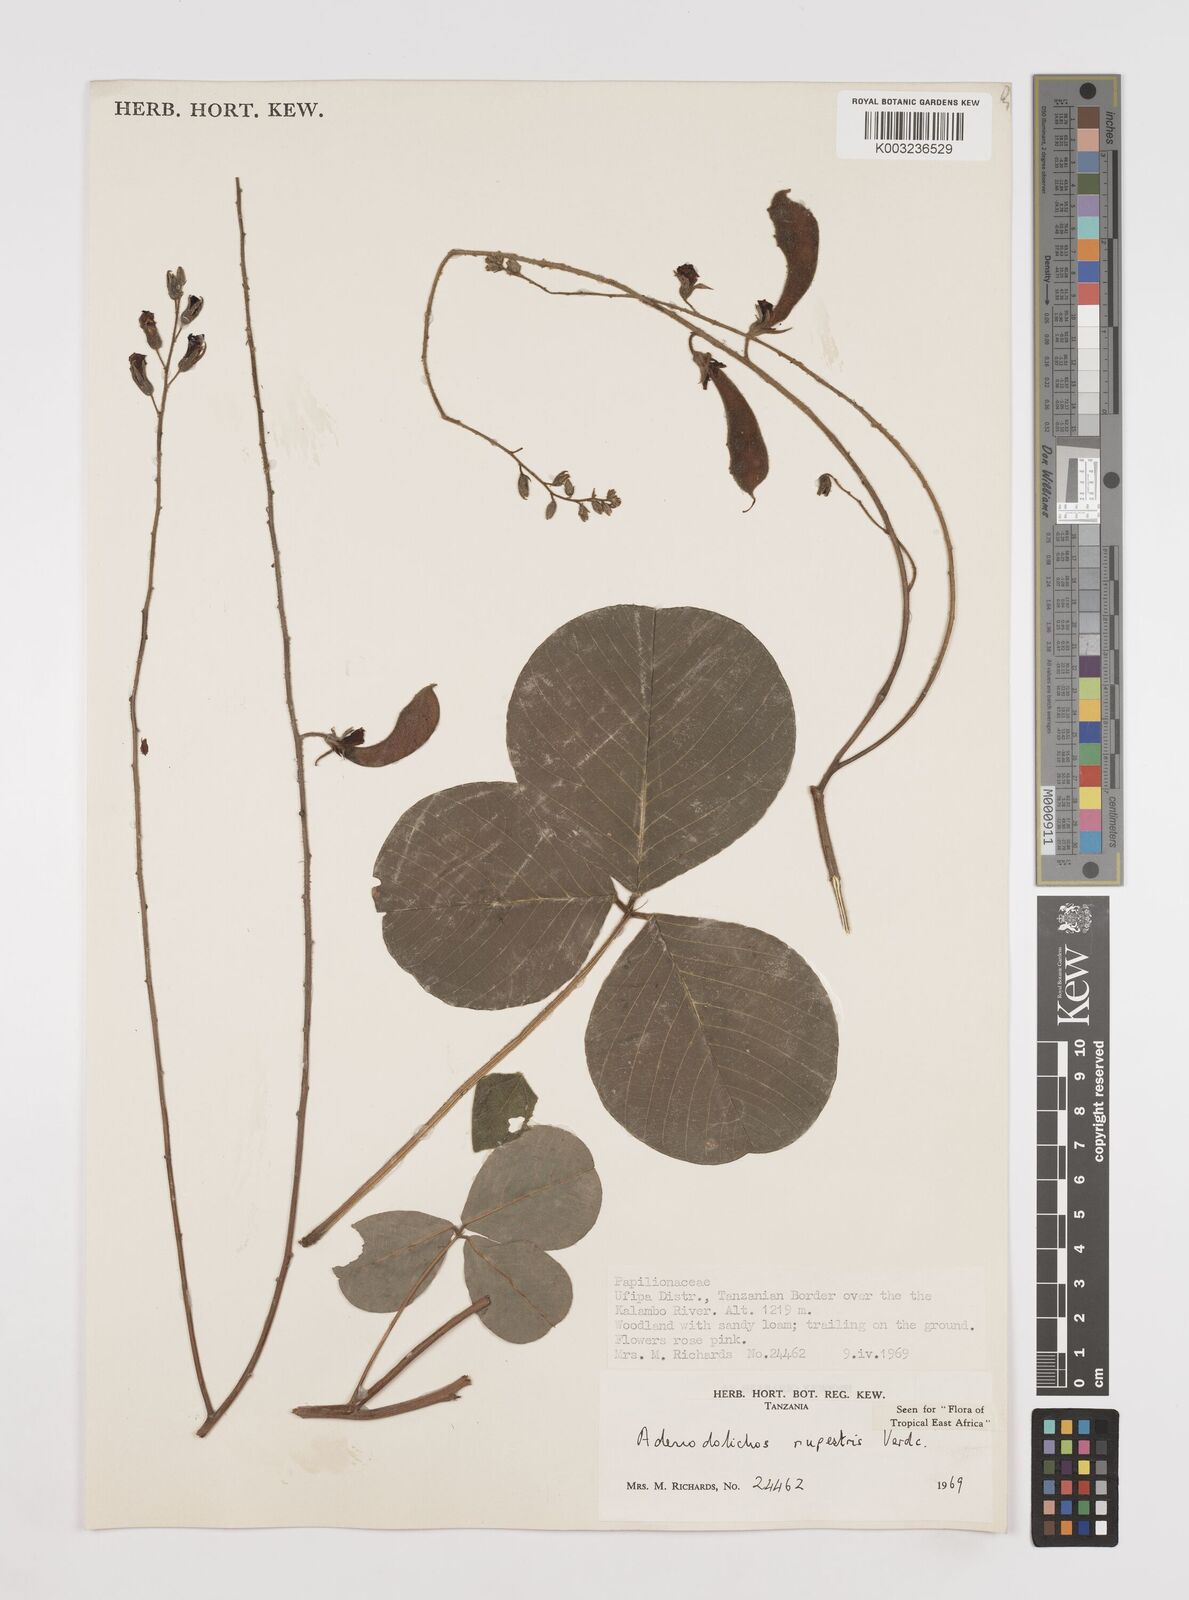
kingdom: Plantae
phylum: Tracheophyta
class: Magnoliopsida
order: Fabales
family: Fabaceae
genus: Adenodolichos
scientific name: Adenodolichos rupestris
